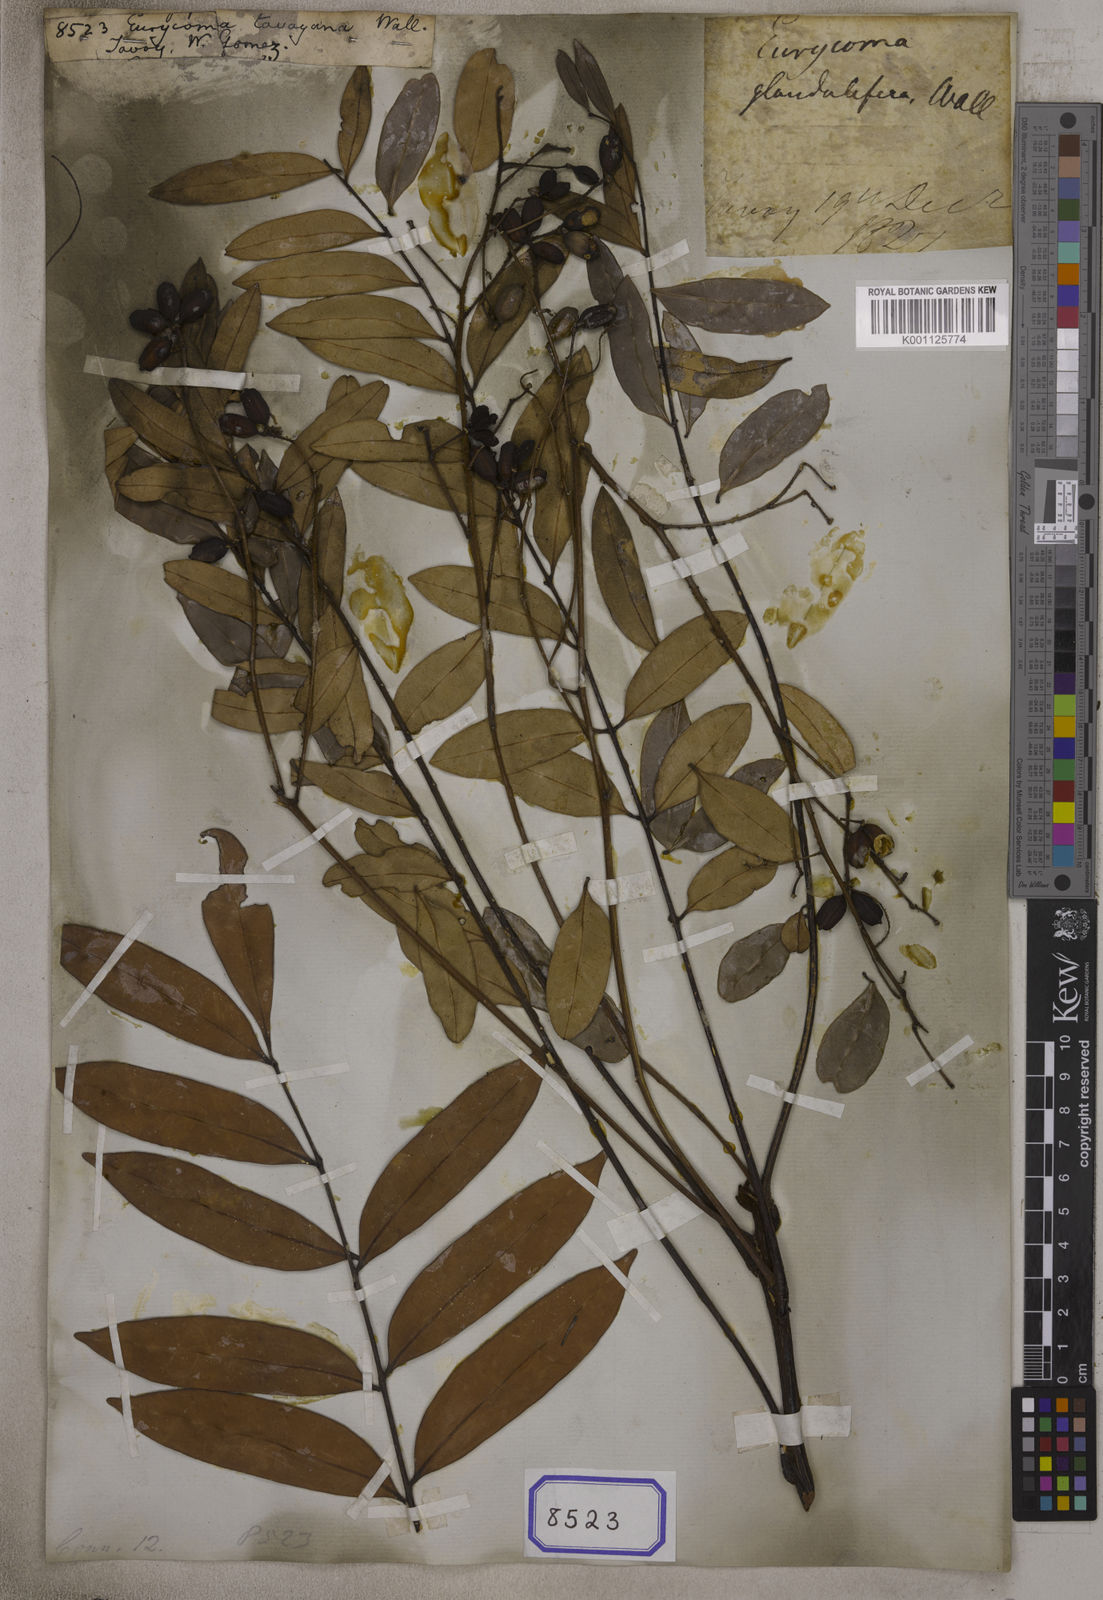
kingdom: Plantae
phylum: Tracheophyta
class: Magnoliopsida
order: Sapindales
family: Simaroubaceae
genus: Eurycoma
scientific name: Eurycoma longifolia
